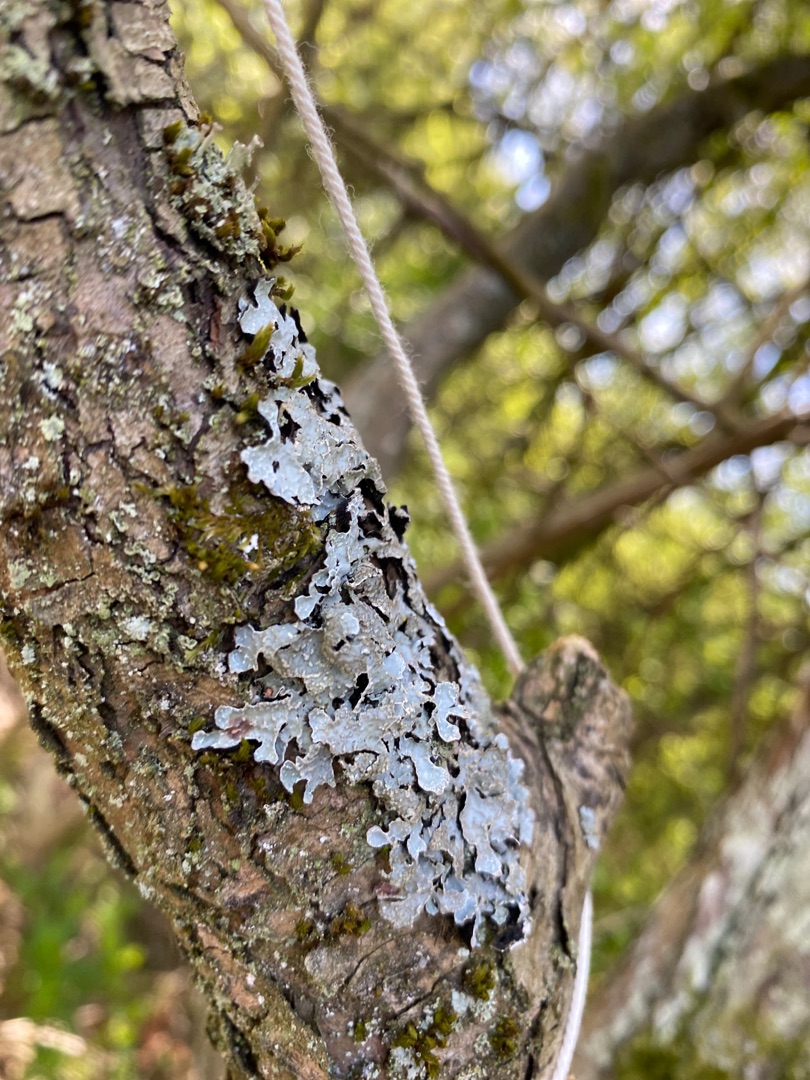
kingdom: Fungi
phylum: Ascomycota
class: Lecanoromycetes
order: Lecanorales
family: Parmeliaceae
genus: Parmelia
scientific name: Parmelia sulcata
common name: Rynket skållav
